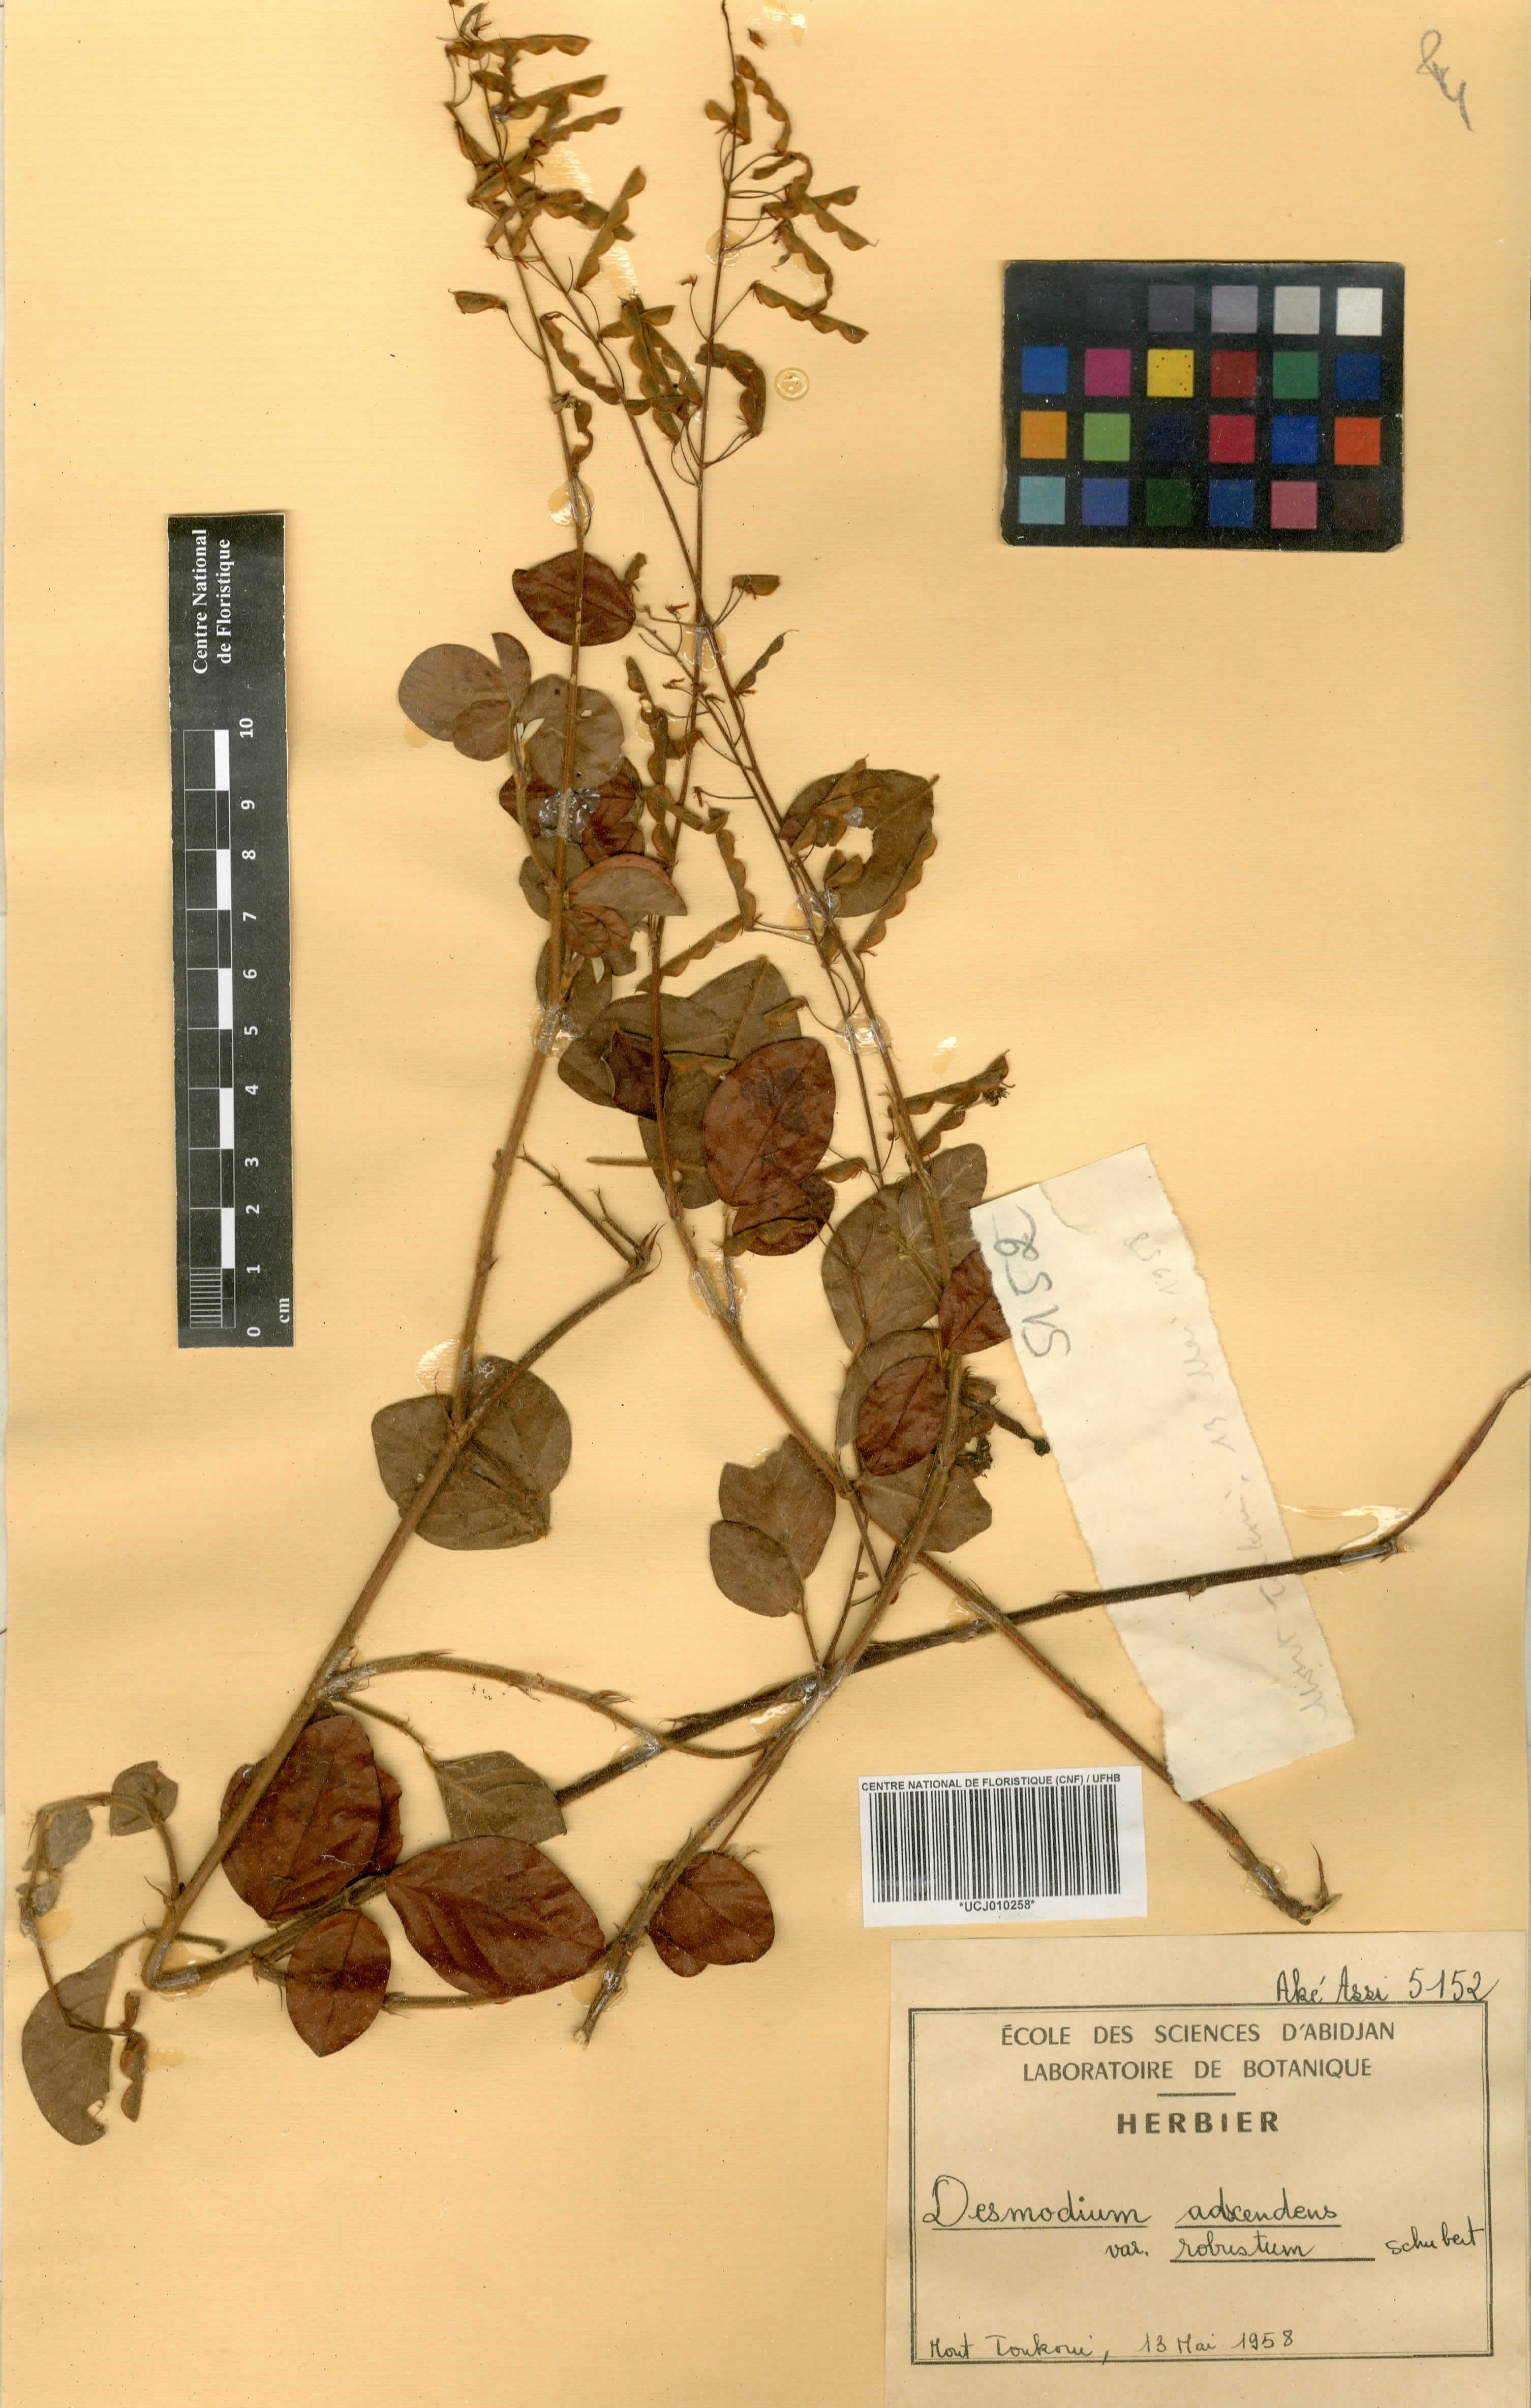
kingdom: Plantae
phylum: Tracheophyta
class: Magnoliopsida
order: Fabales
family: Fabaceae
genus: Grona
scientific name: Grona adscendens
